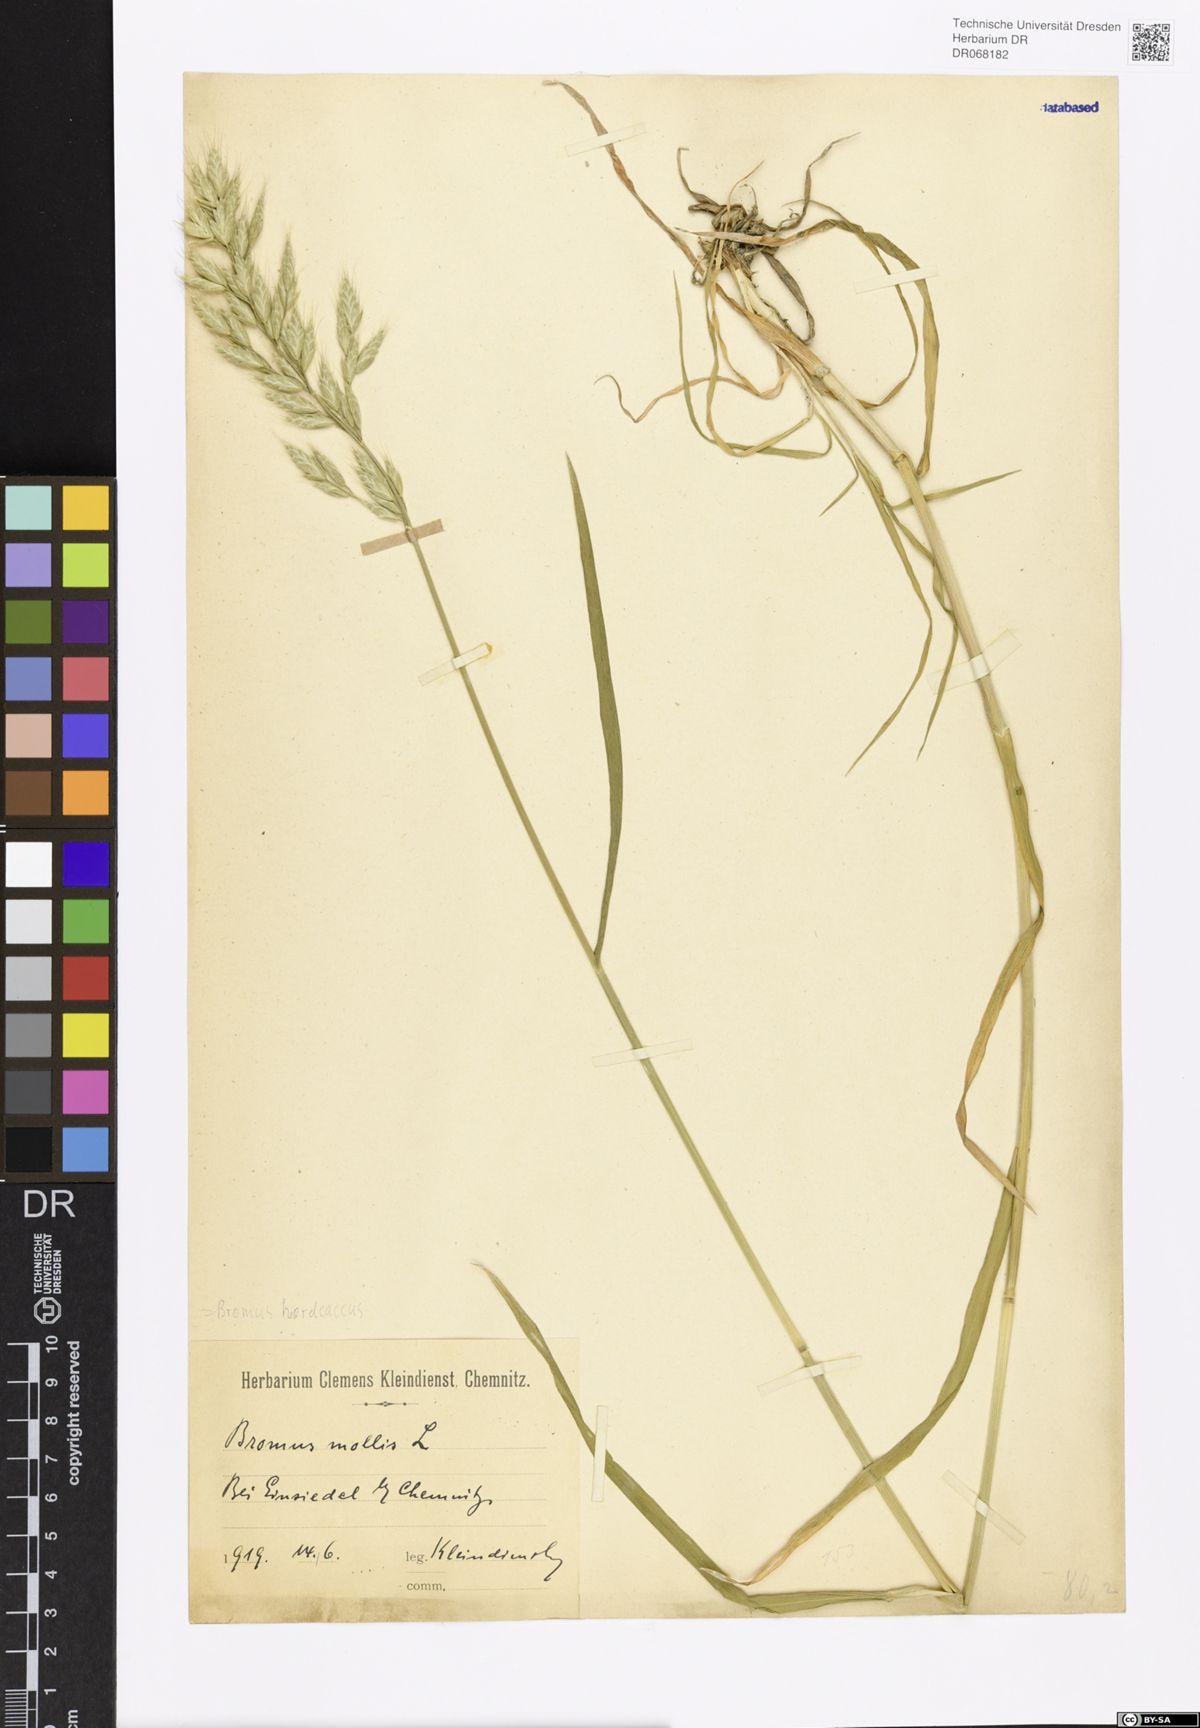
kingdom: Plantae
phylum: Tracheophyta
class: Liliopsida
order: Poales
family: Poaceae
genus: Bromus
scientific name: Bromus hordeaceus
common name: Soft brome
